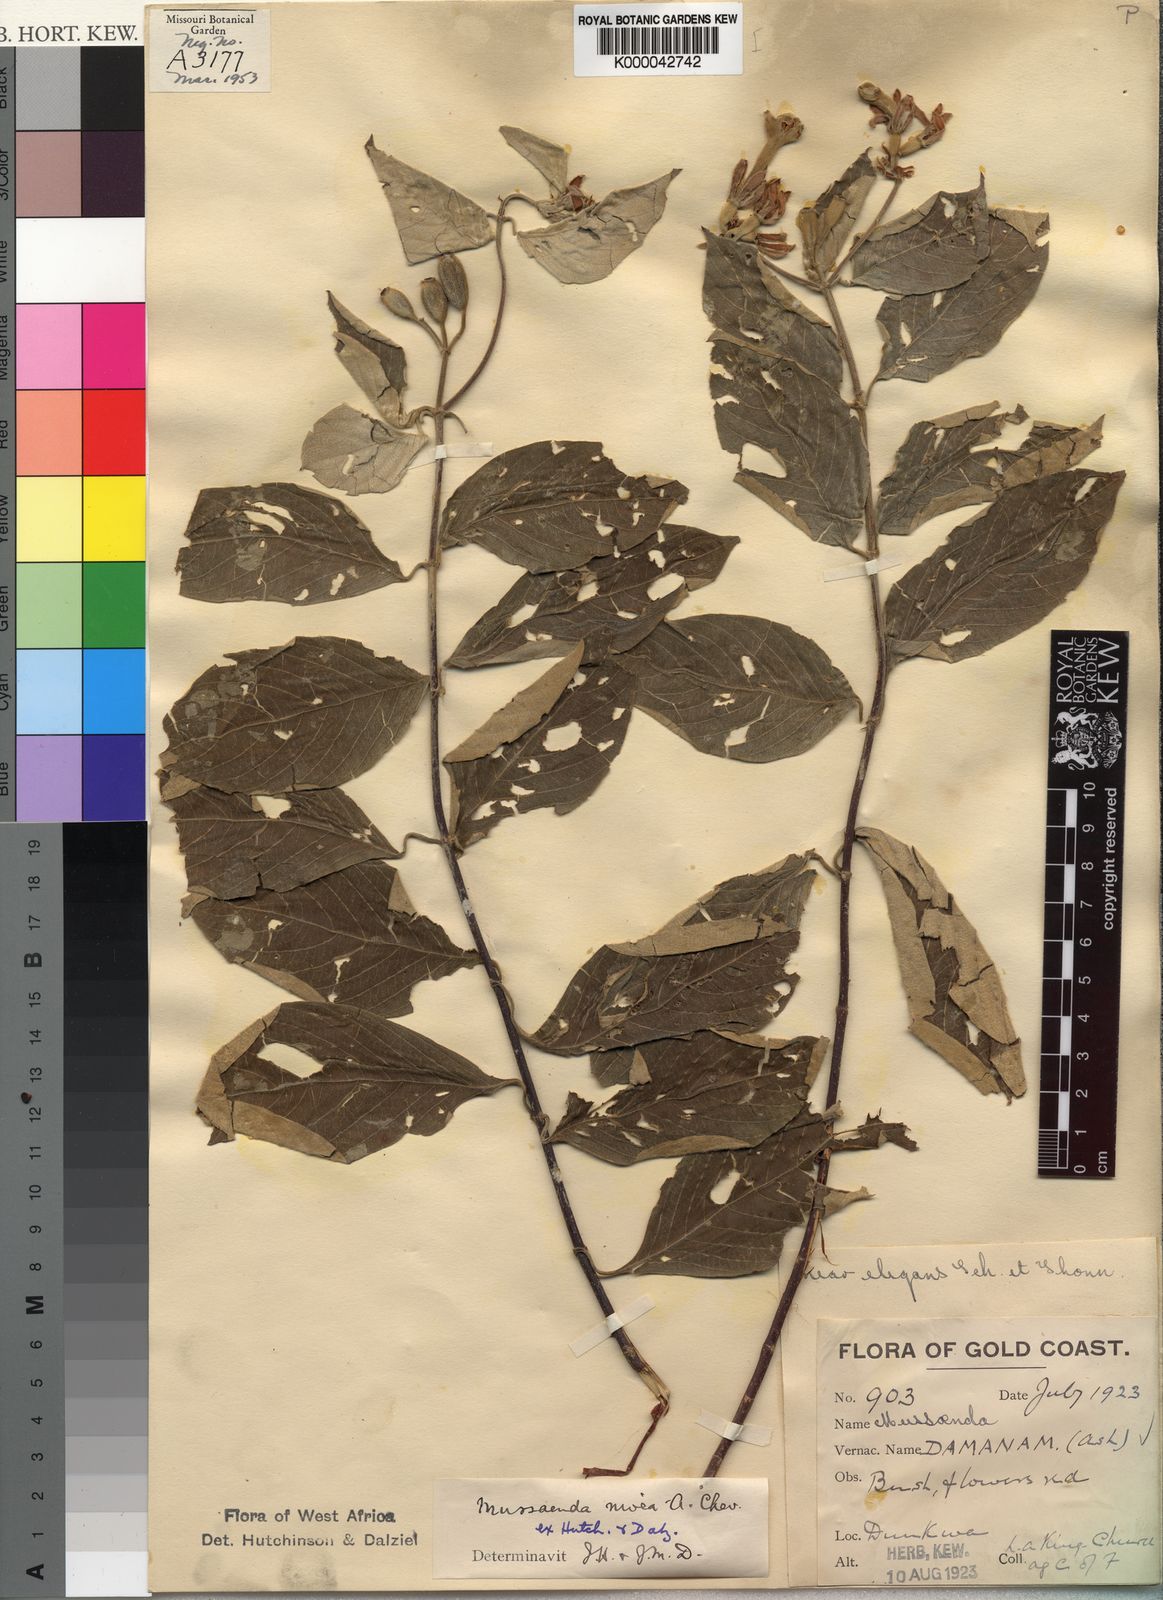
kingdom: Plantae
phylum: Tracheophyta
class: Magnoliopsida
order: Gentianales
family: Rubiaceae
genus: Mussaenda
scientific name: Mussaenda nivea
